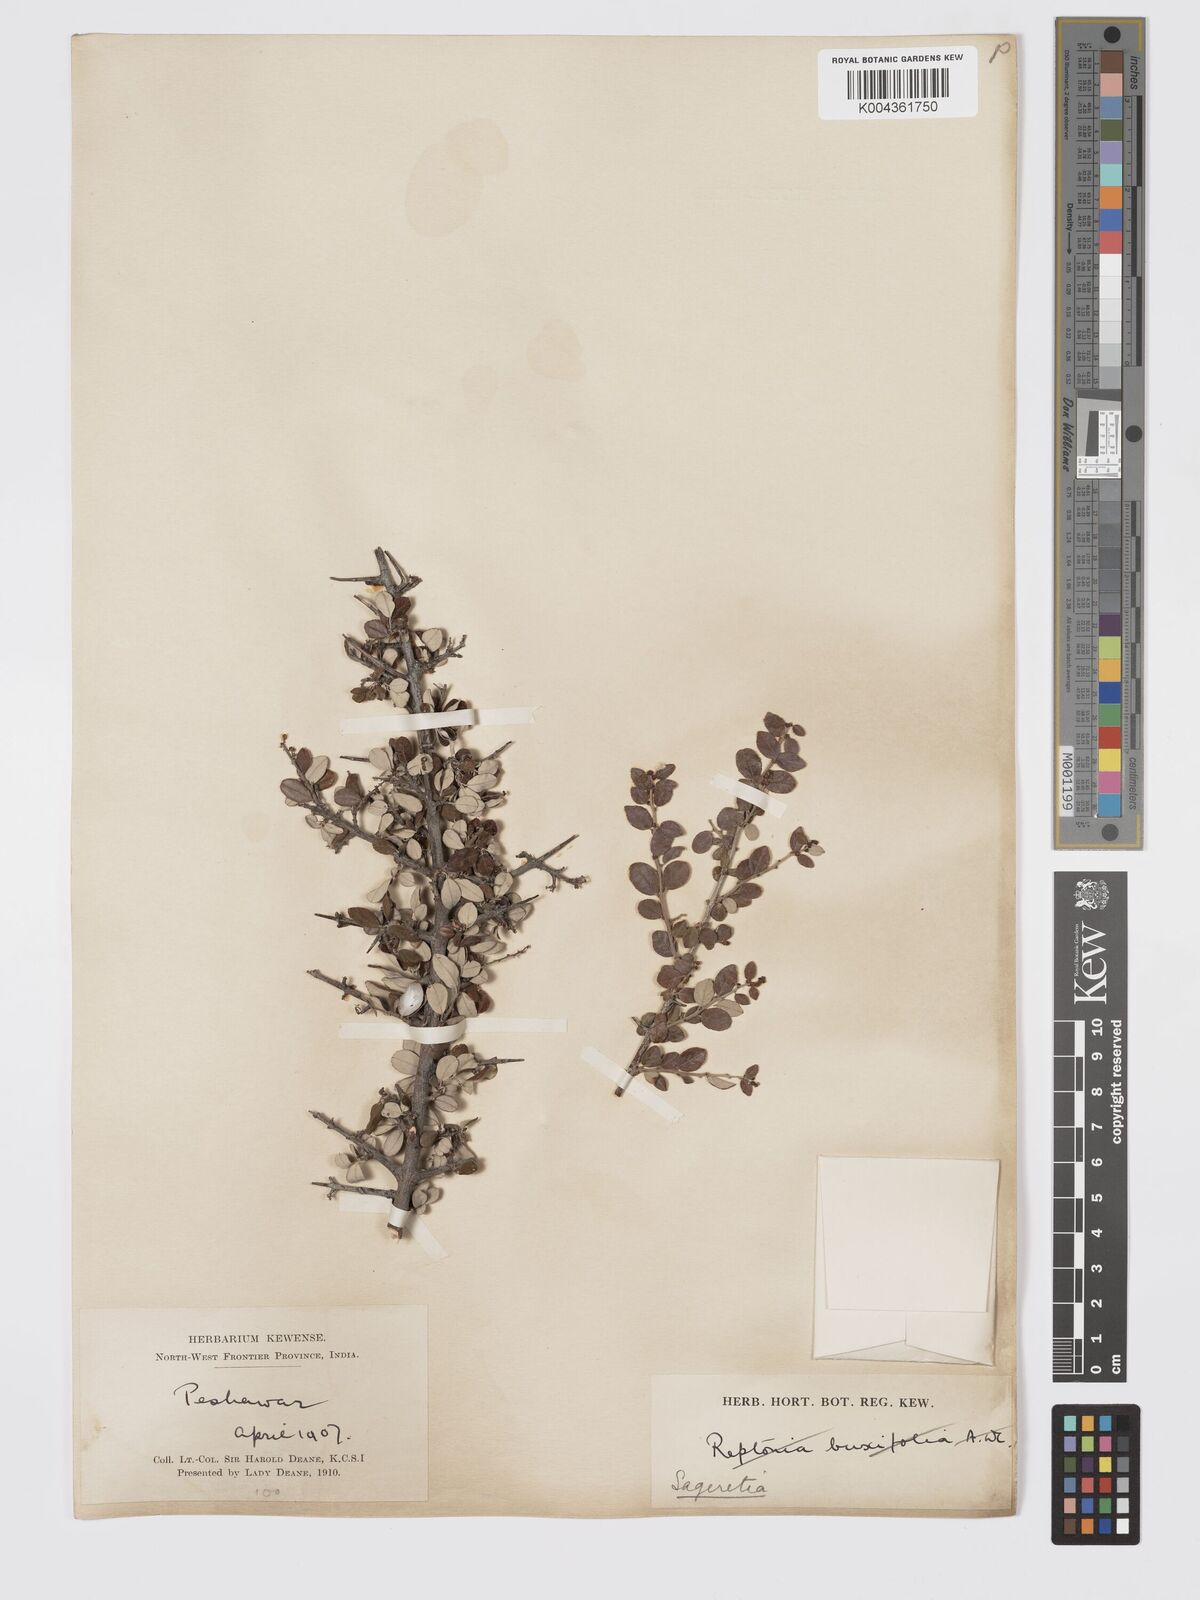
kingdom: Plantae
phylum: Tracheophyta
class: Magnoliopsida
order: Rosales
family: Rhamnaceae
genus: Sageretia
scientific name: Sageretia brandrethiana
